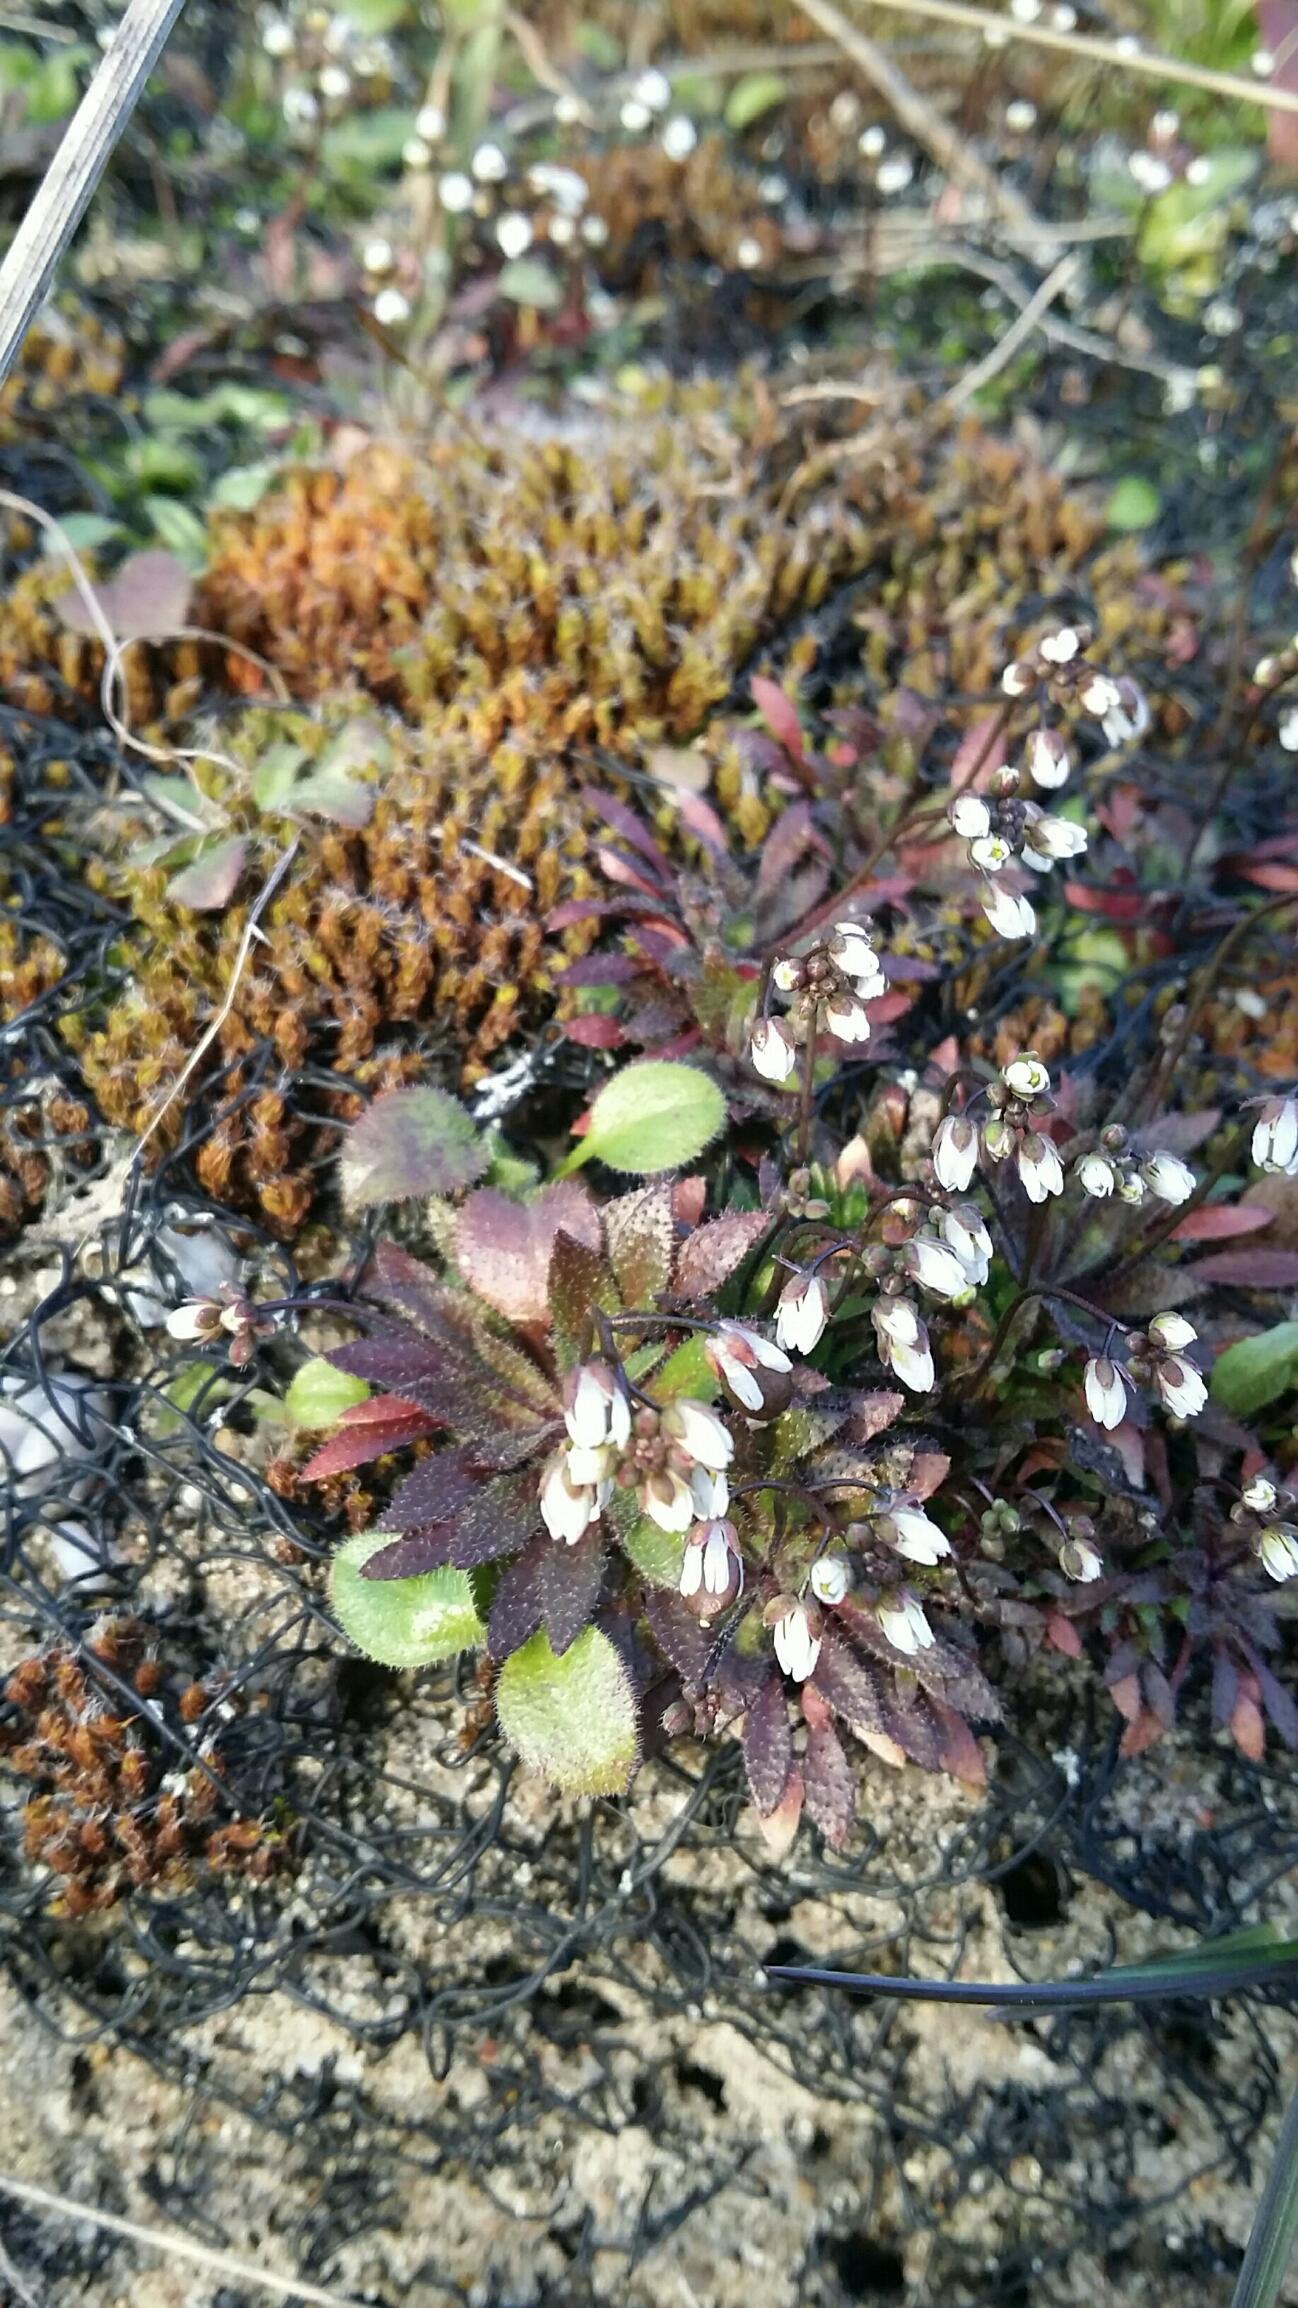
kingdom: Plantae
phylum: Tracheophyta
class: Magnoliopsida
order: Brassicales
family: Brassicaceae
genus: Draba
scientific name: Draba verna
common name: Vår-gæslingeblomst
